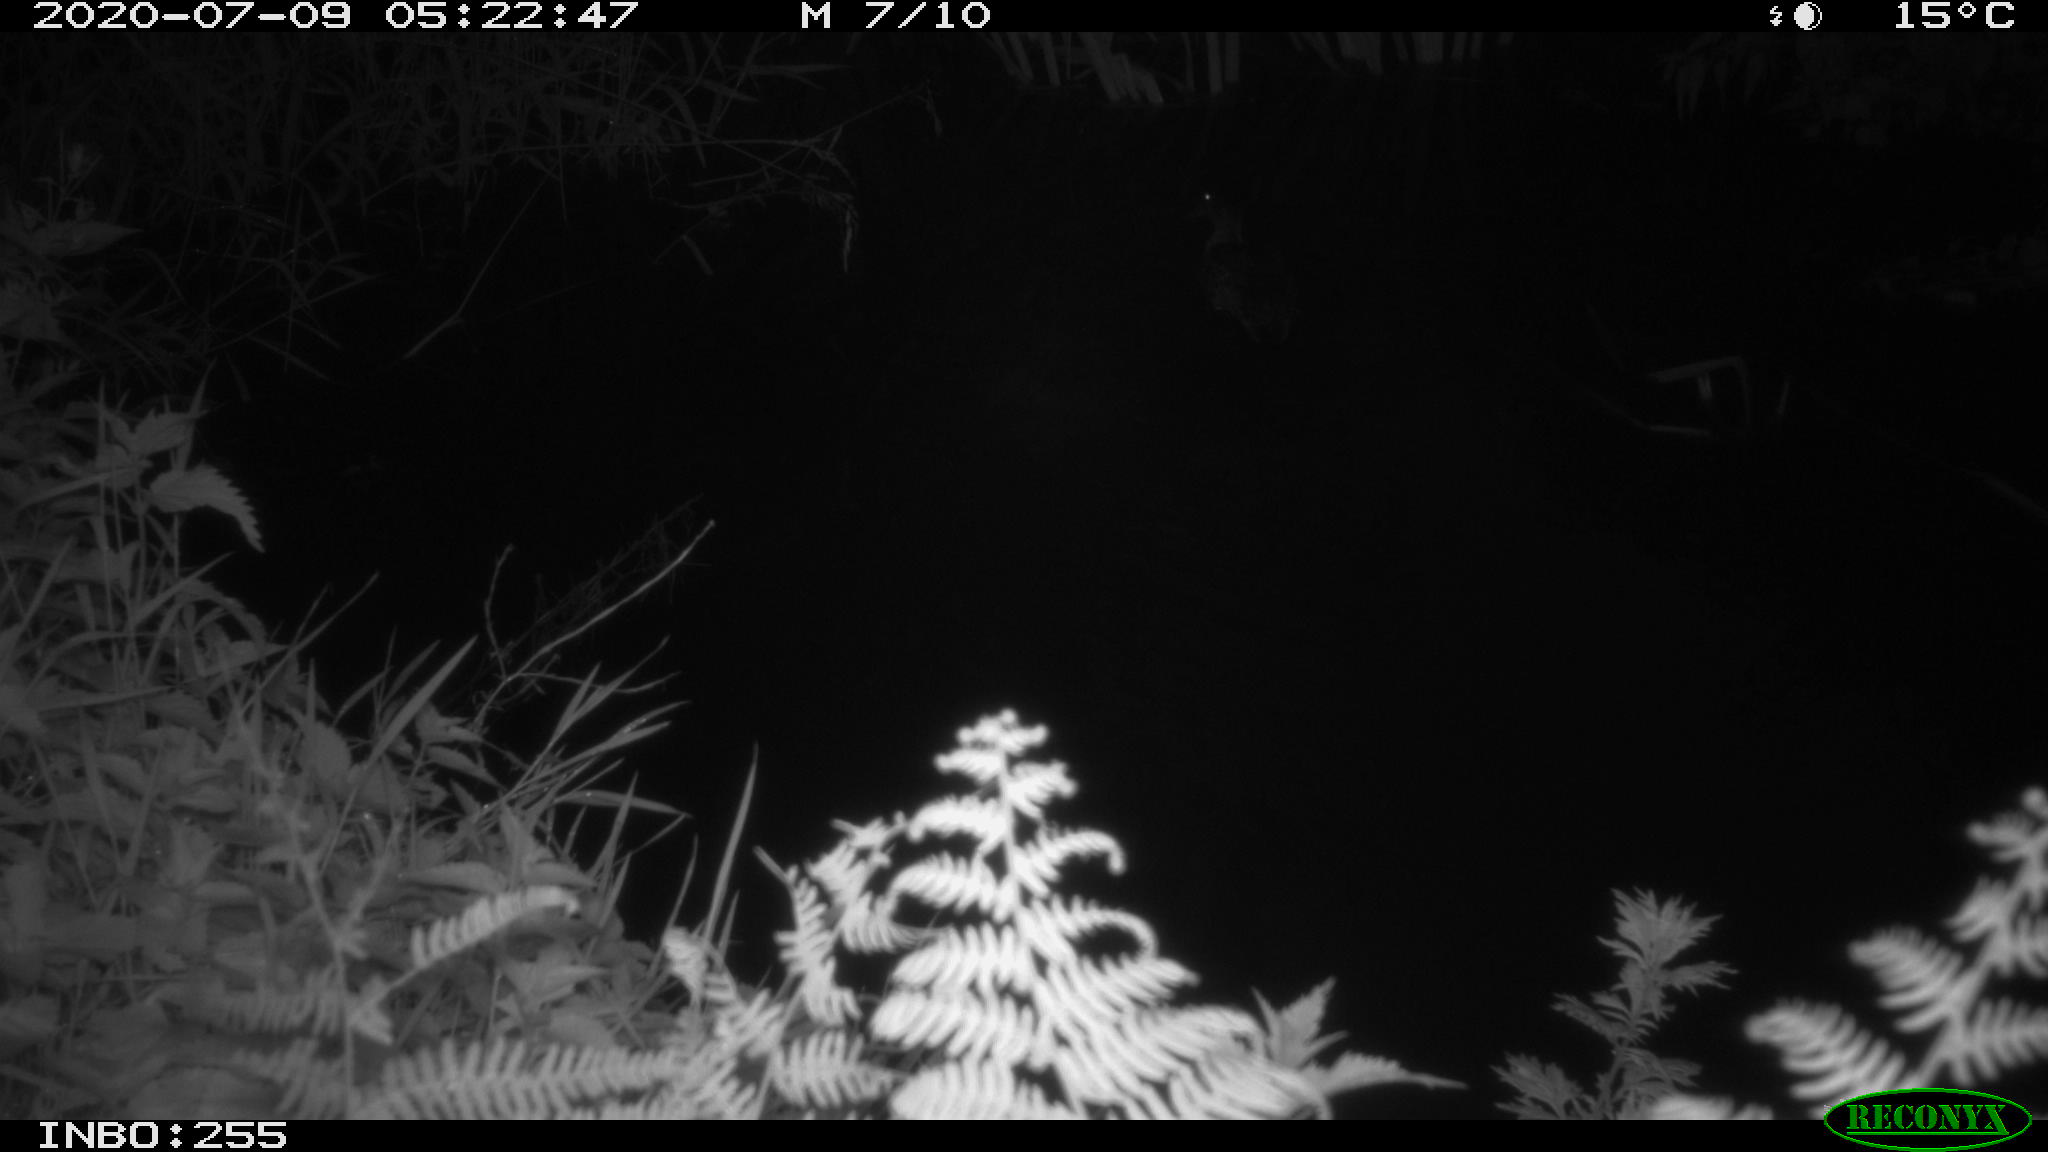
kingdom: Animalia
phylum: Chordata
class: Aves
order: Anseriformes
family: Anatidae
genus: Anas
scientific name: Anas platyrhynchos
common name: Mallard
